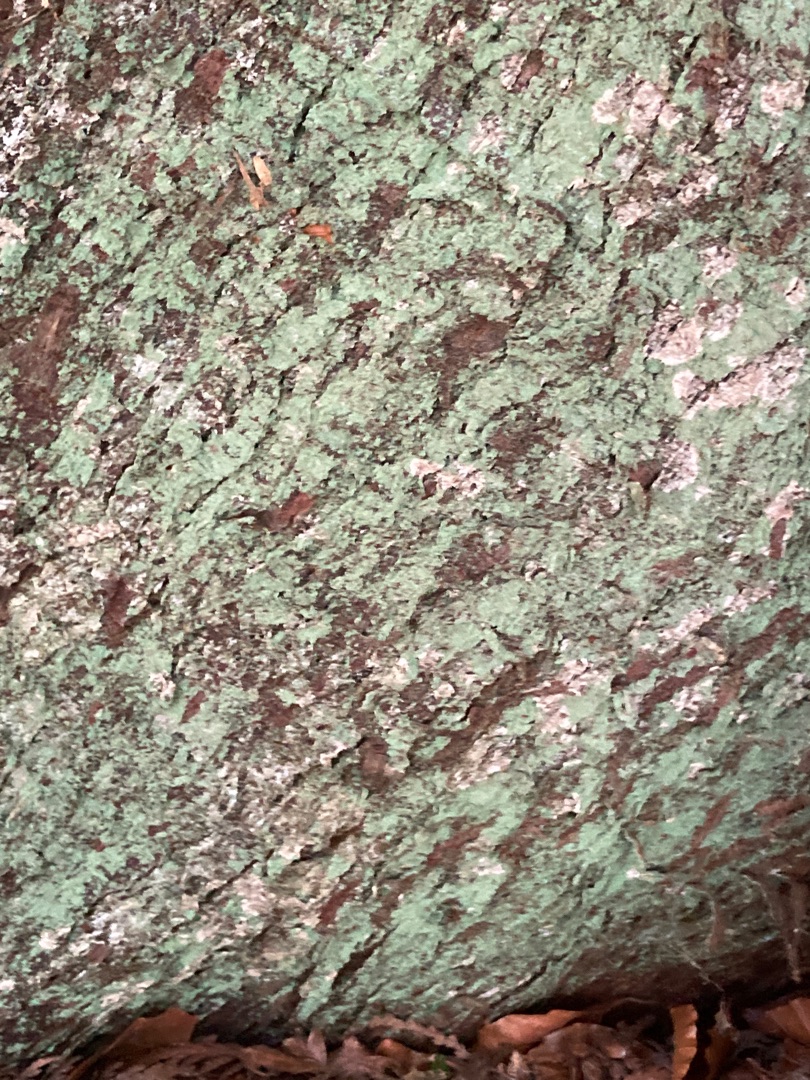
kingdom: Fungi
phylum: Ascomycota
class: Lecanoromycetes
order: Lecanorales
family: Stereocaulaceae
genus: Lepraria
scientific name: Lepraria incana
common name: Almindelig støvlav
